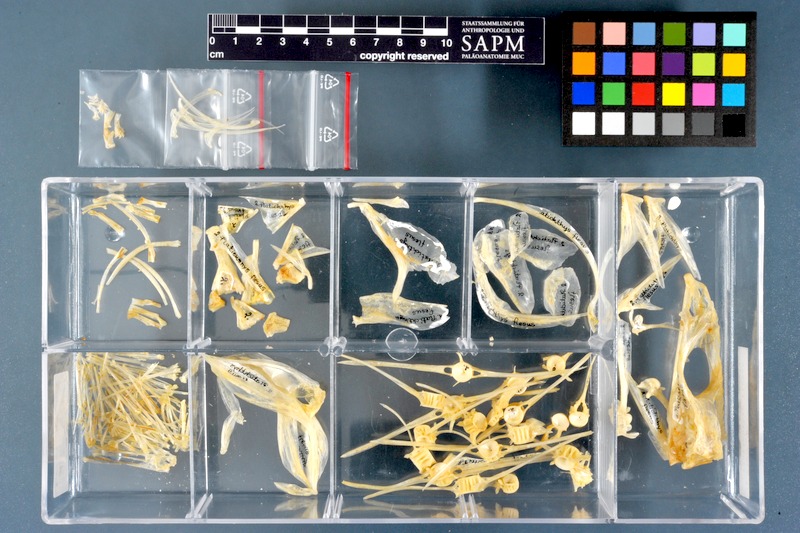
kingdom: Animalia
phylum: Chordata
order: Pleuronectiformes
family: Pleuronectidae
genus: Platichthys
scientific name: Platichthys flesus
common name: European flounder
